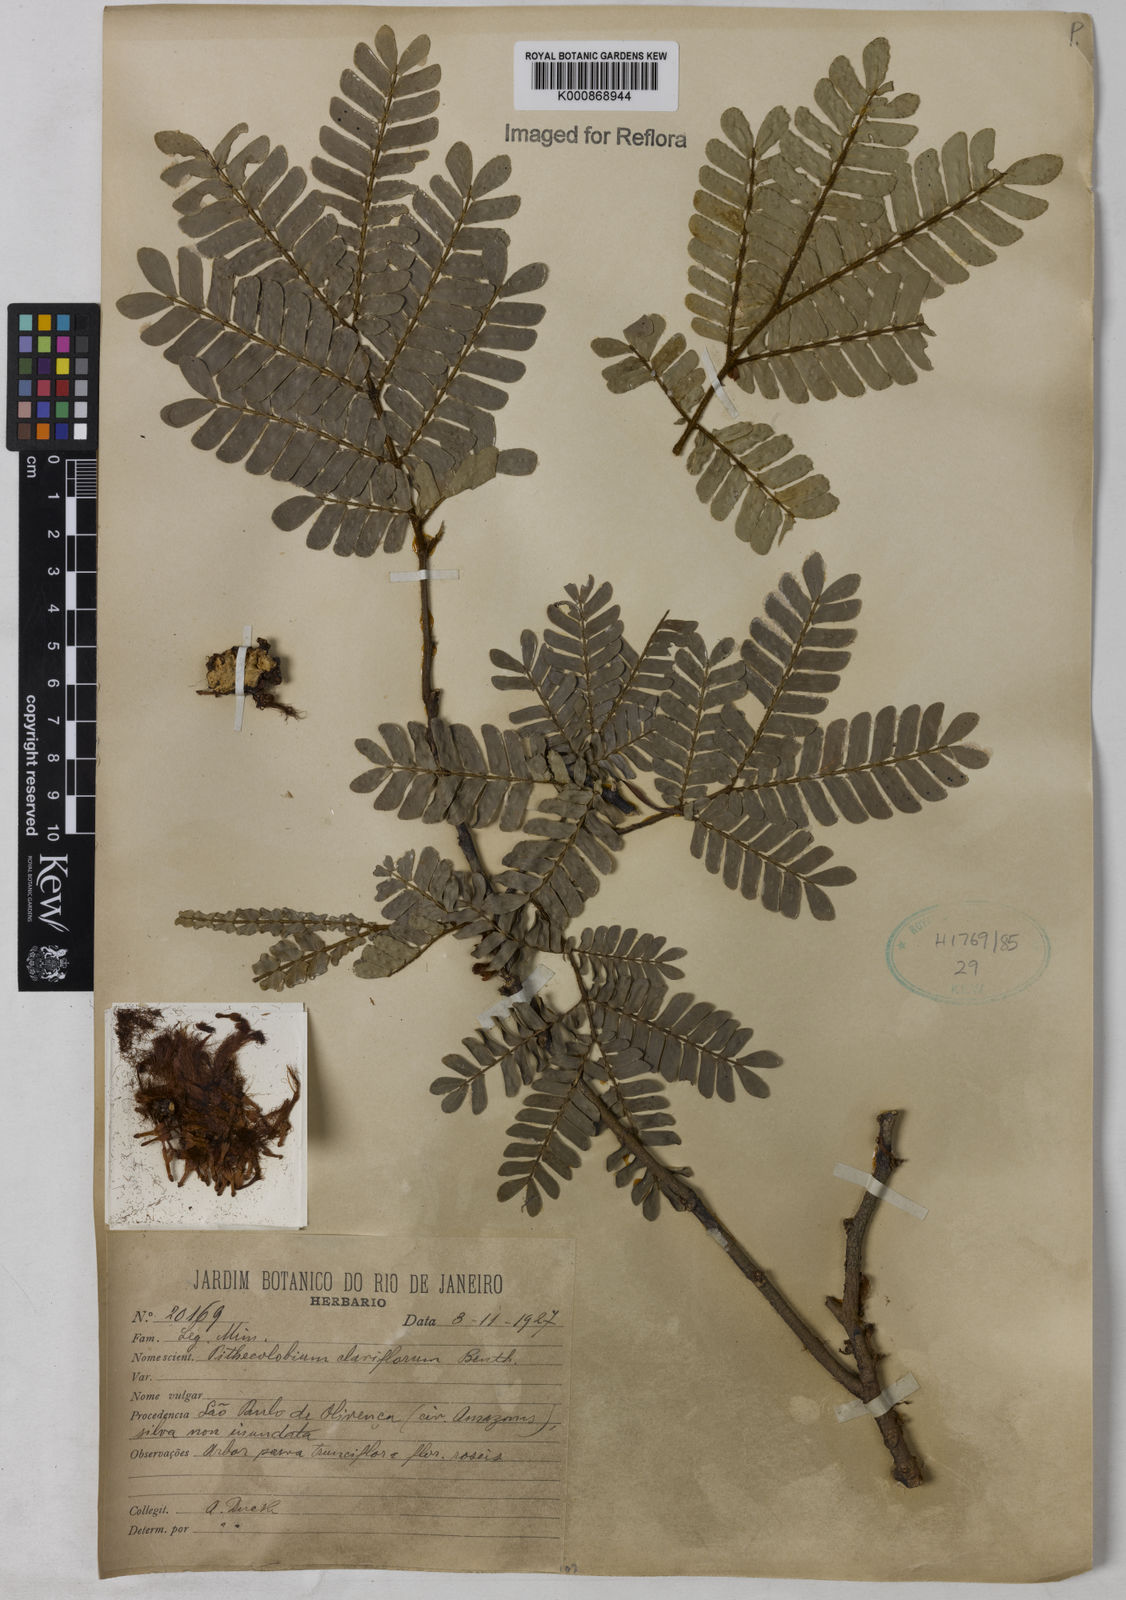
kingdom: Plantae
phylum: Tracheophyta
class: Magnoliopsida
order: Fabales
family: Fabaceae
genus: Zygia
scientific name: Zygia claviflora
